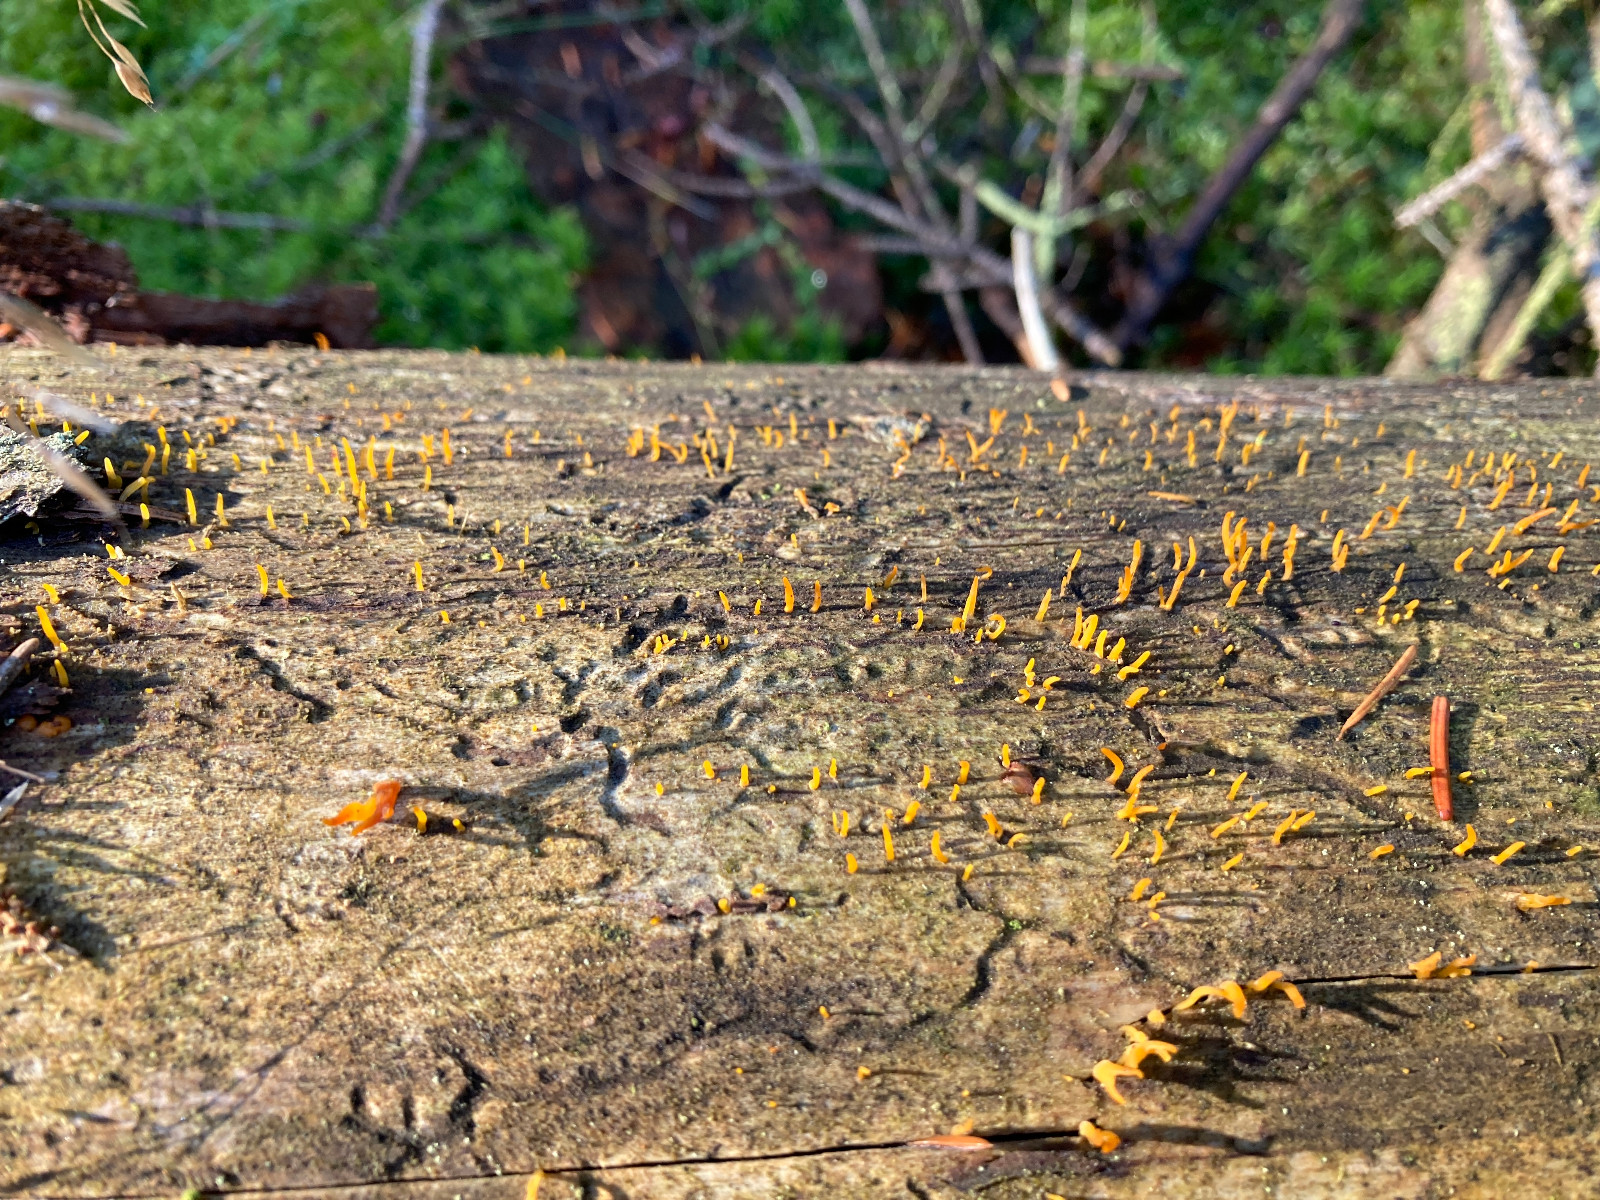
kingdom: Fungi
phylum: Basidiomycota
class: Dacrymycetes
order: Dacrymycetales
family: Dacrymycetaceae
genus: Calocera
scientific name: Calocera cornea
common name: liden guldgaffel
